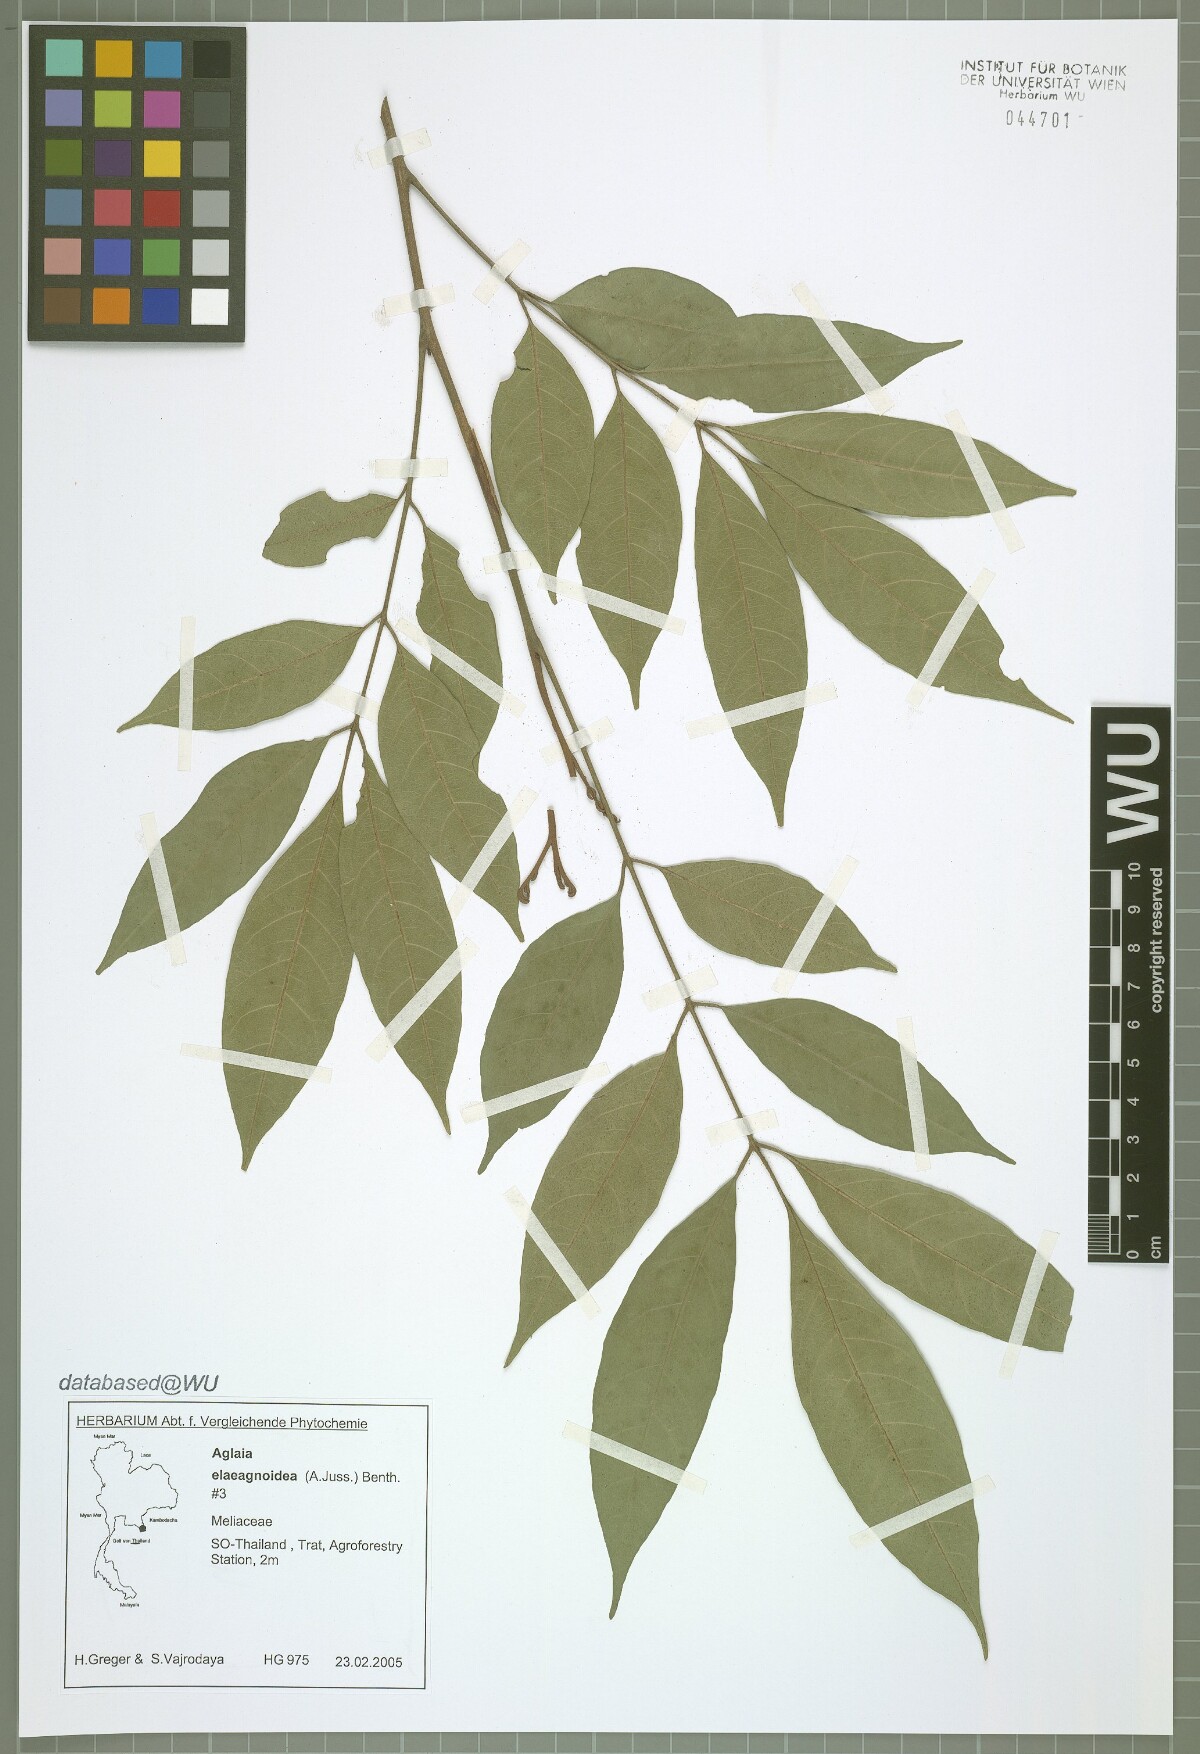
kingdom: Plantae
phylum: Tracheophyta
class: Magnoliopsida
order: Sapindales
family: Meliaceae
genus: Aglaia
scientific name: Aglaia elaeagnoidea
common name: Droopyleaf
